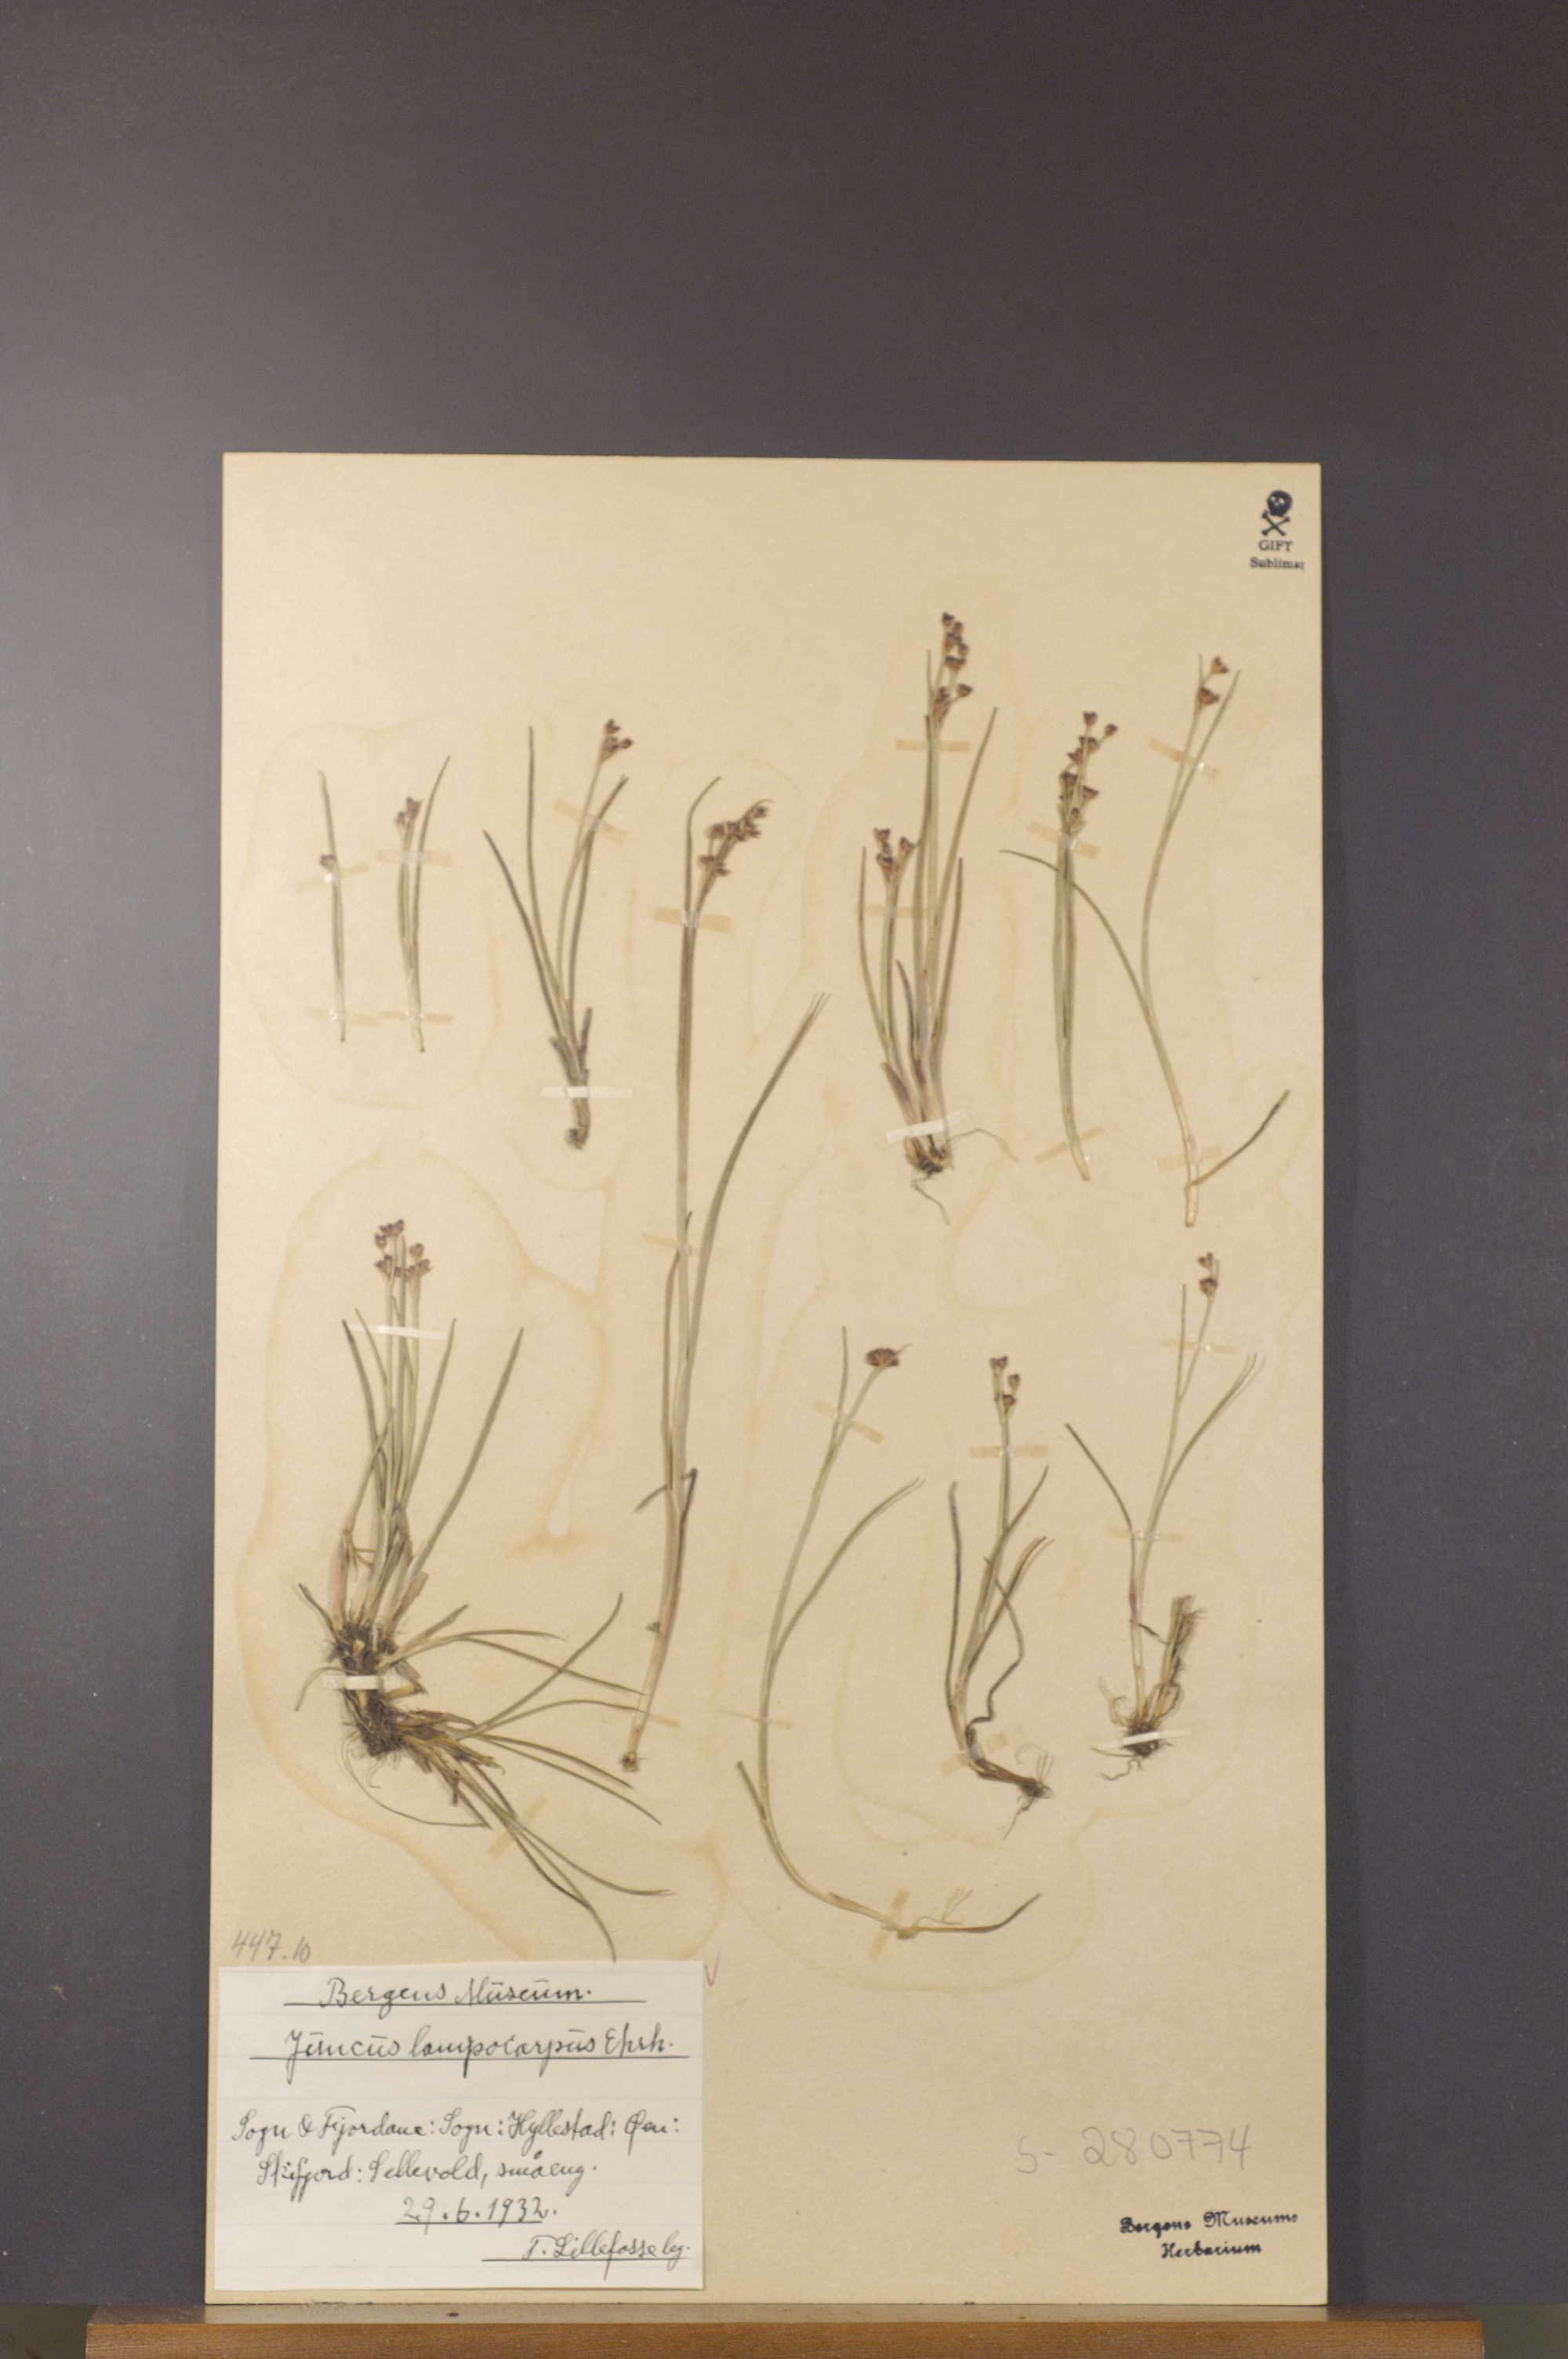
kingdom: Plantae
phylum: Tracheophyta
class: Liliopsida
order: Poales
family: Juncaceae
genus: Juncus
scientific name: Juncus articulatus
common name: Jointed rush
